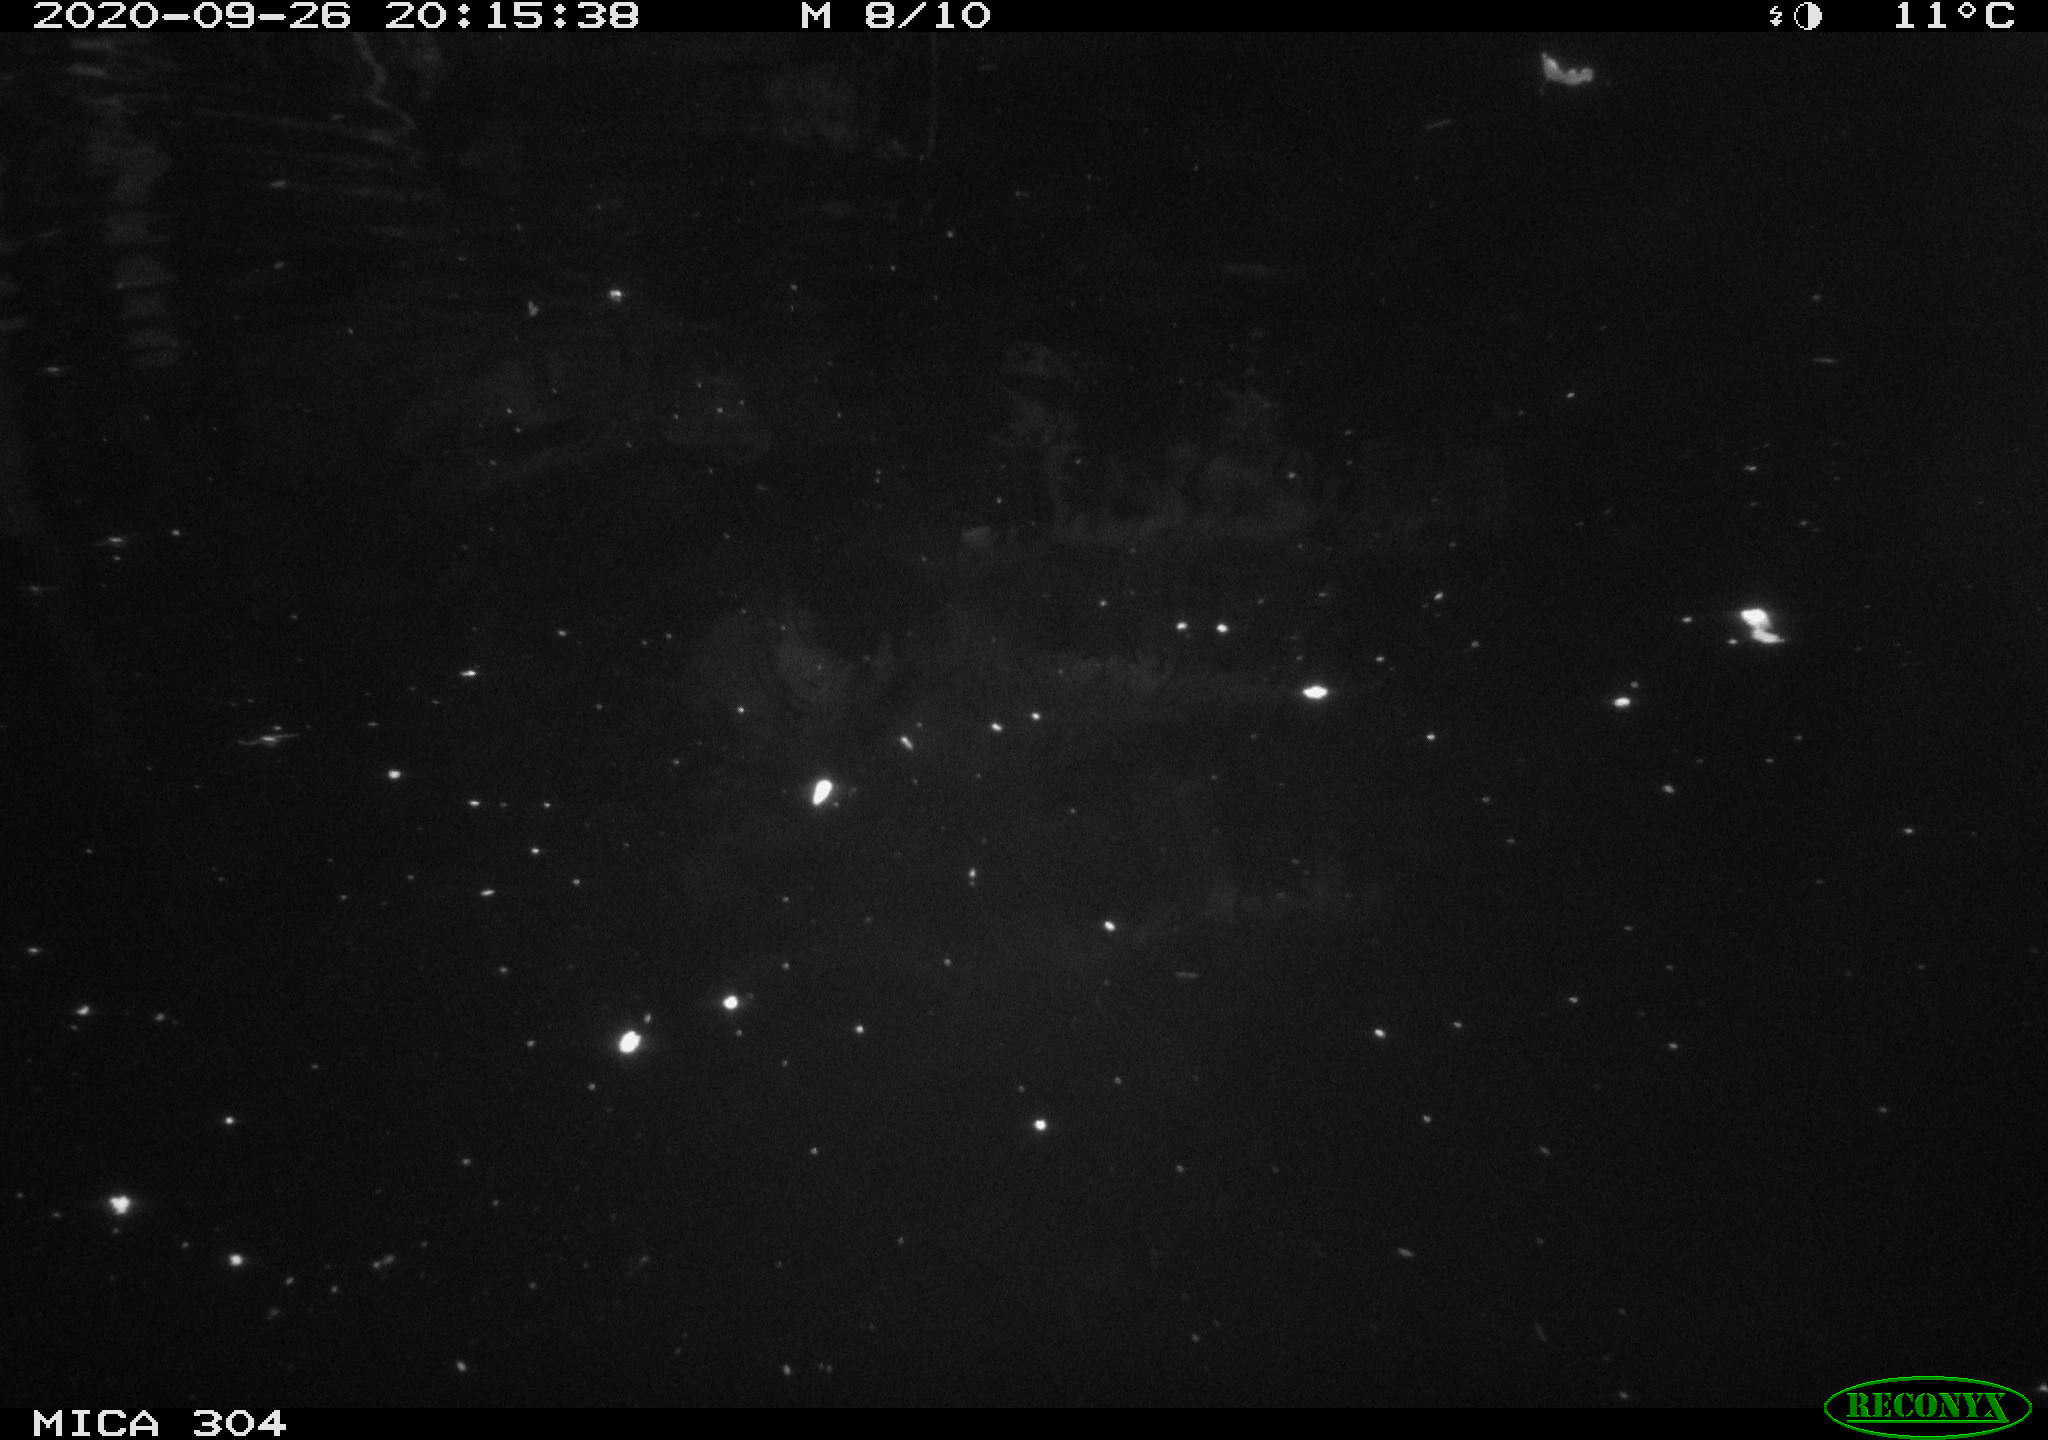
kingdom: Animalia
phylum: Chordata
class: Mammalia
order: Rodentia
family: Muridae
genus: Rattus
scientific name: Rattus norvegicus
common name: Brown rat
